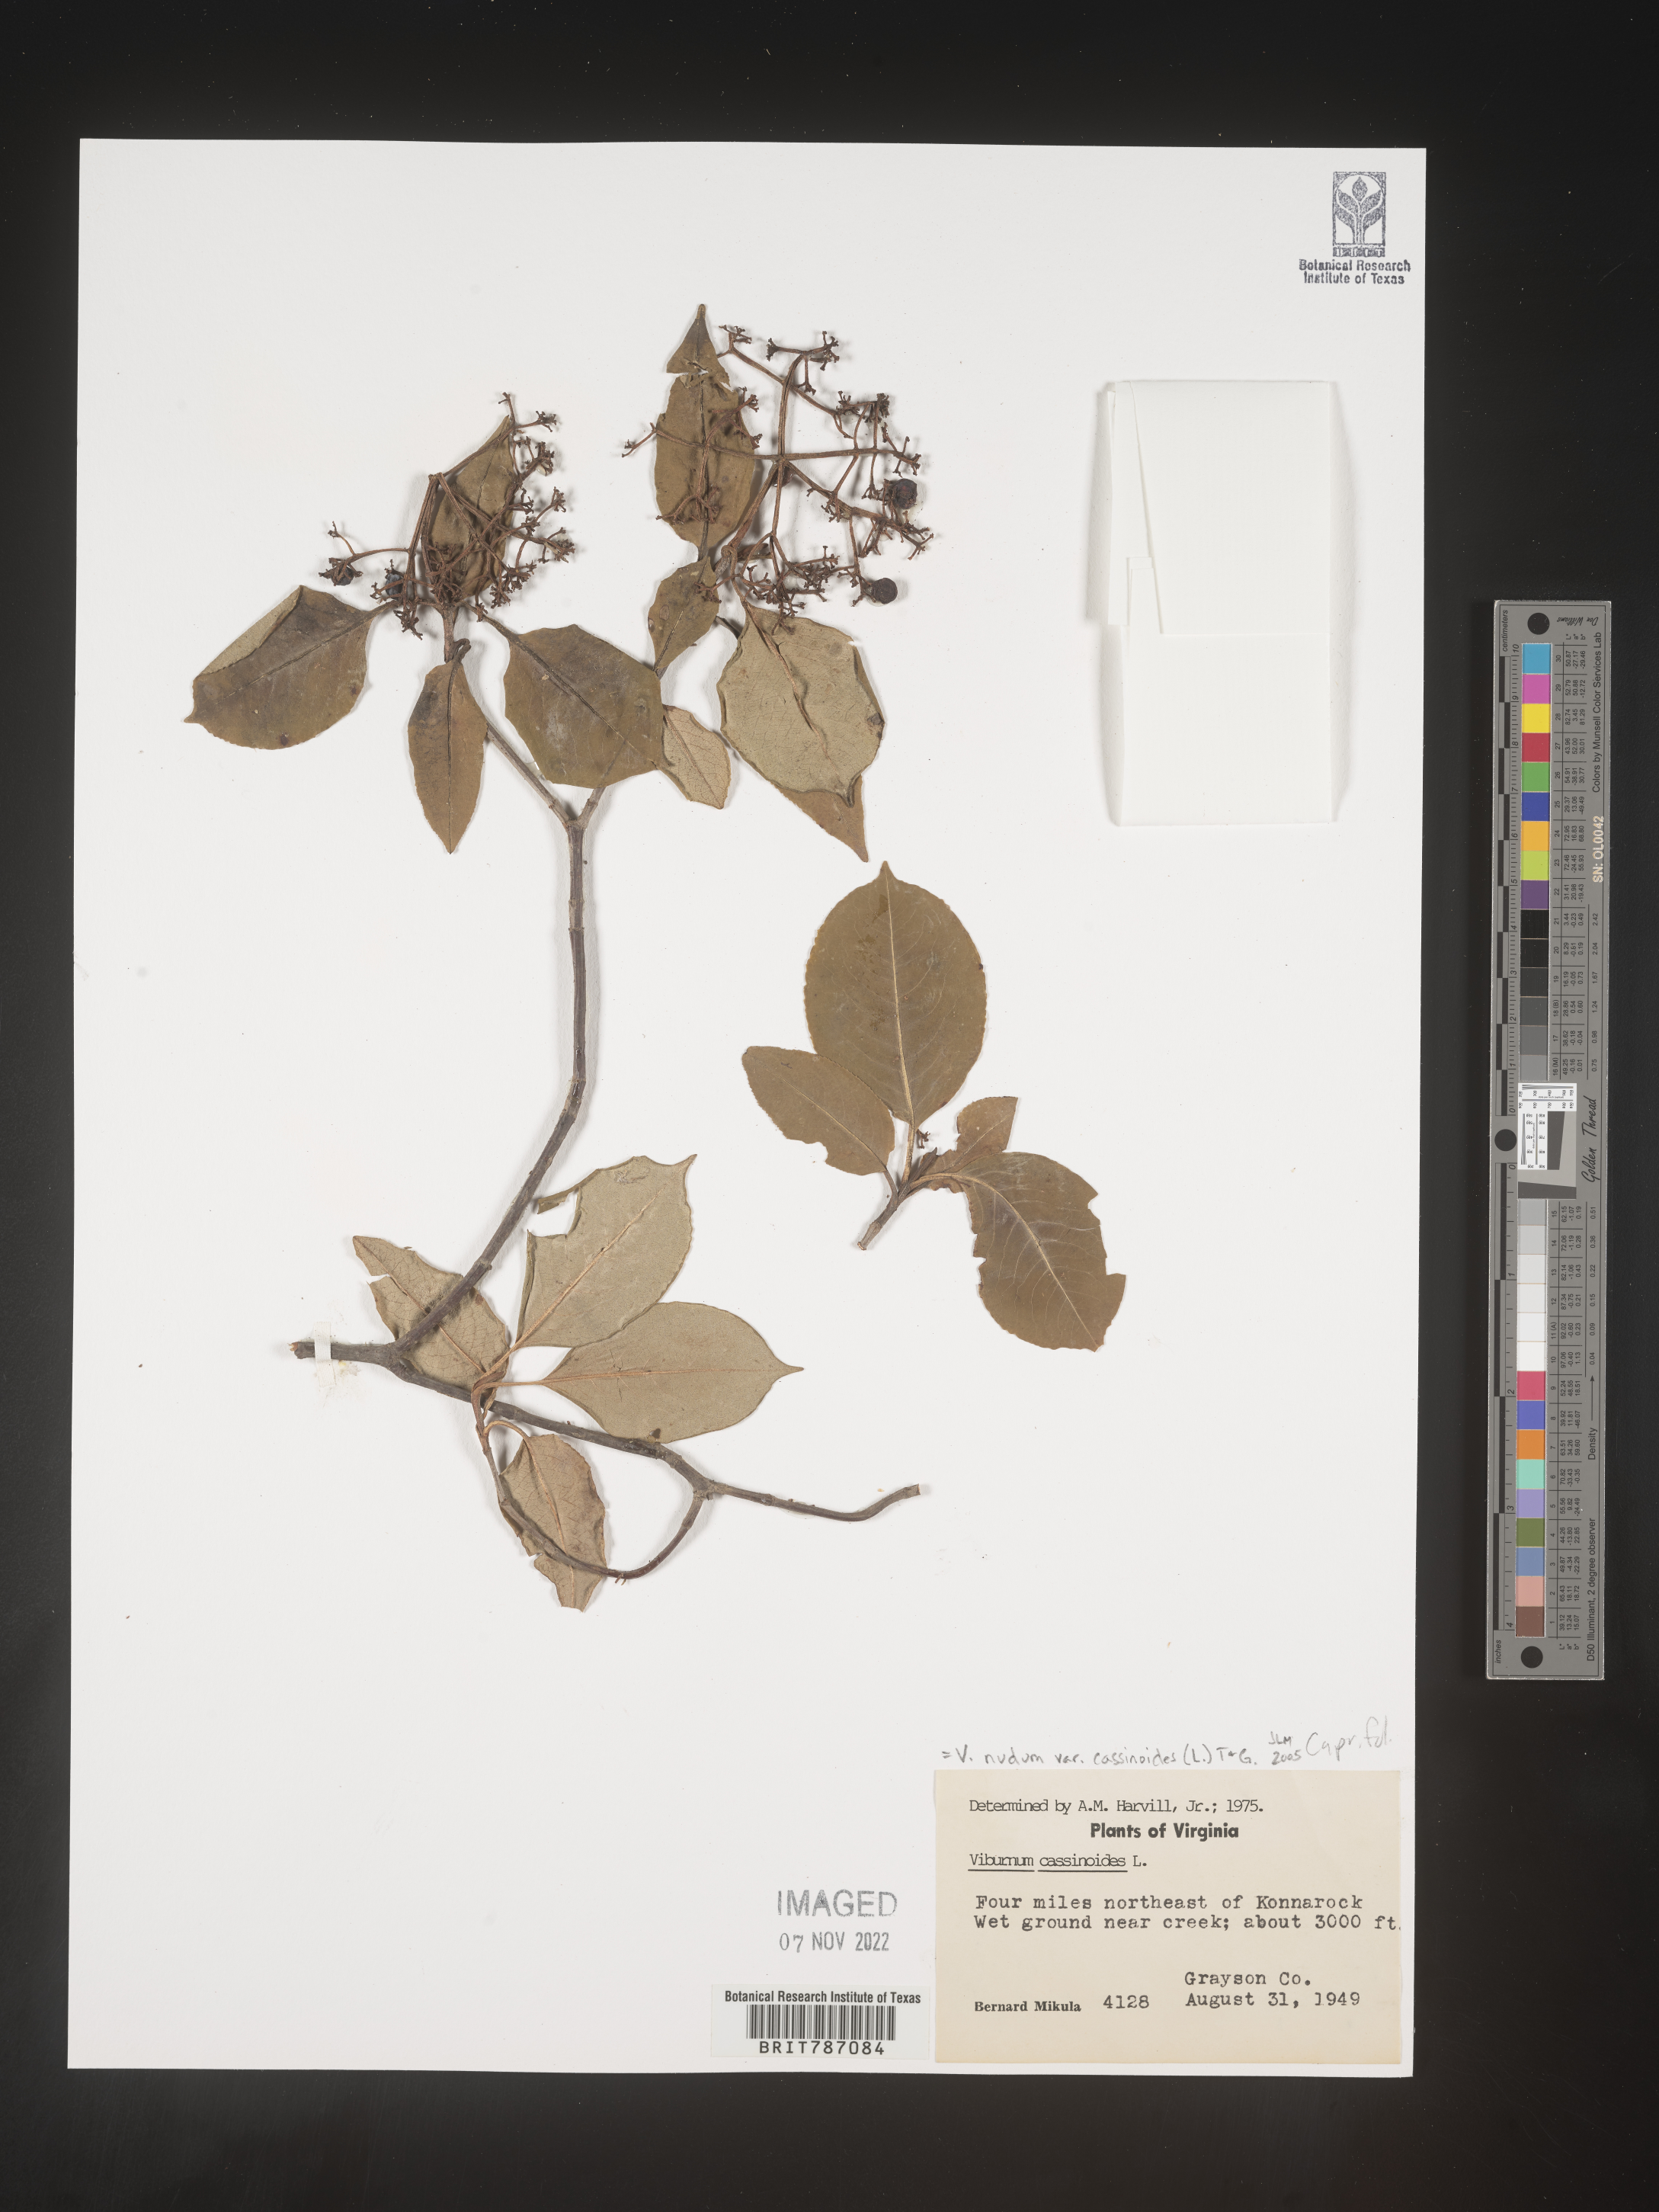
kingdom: Plantae
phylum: Tracheophyta
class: Magnoliopsida
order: Dipsacales
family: Viburnaceae
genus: Viburnum
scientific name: Viburnum nudum
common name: Possum haw
